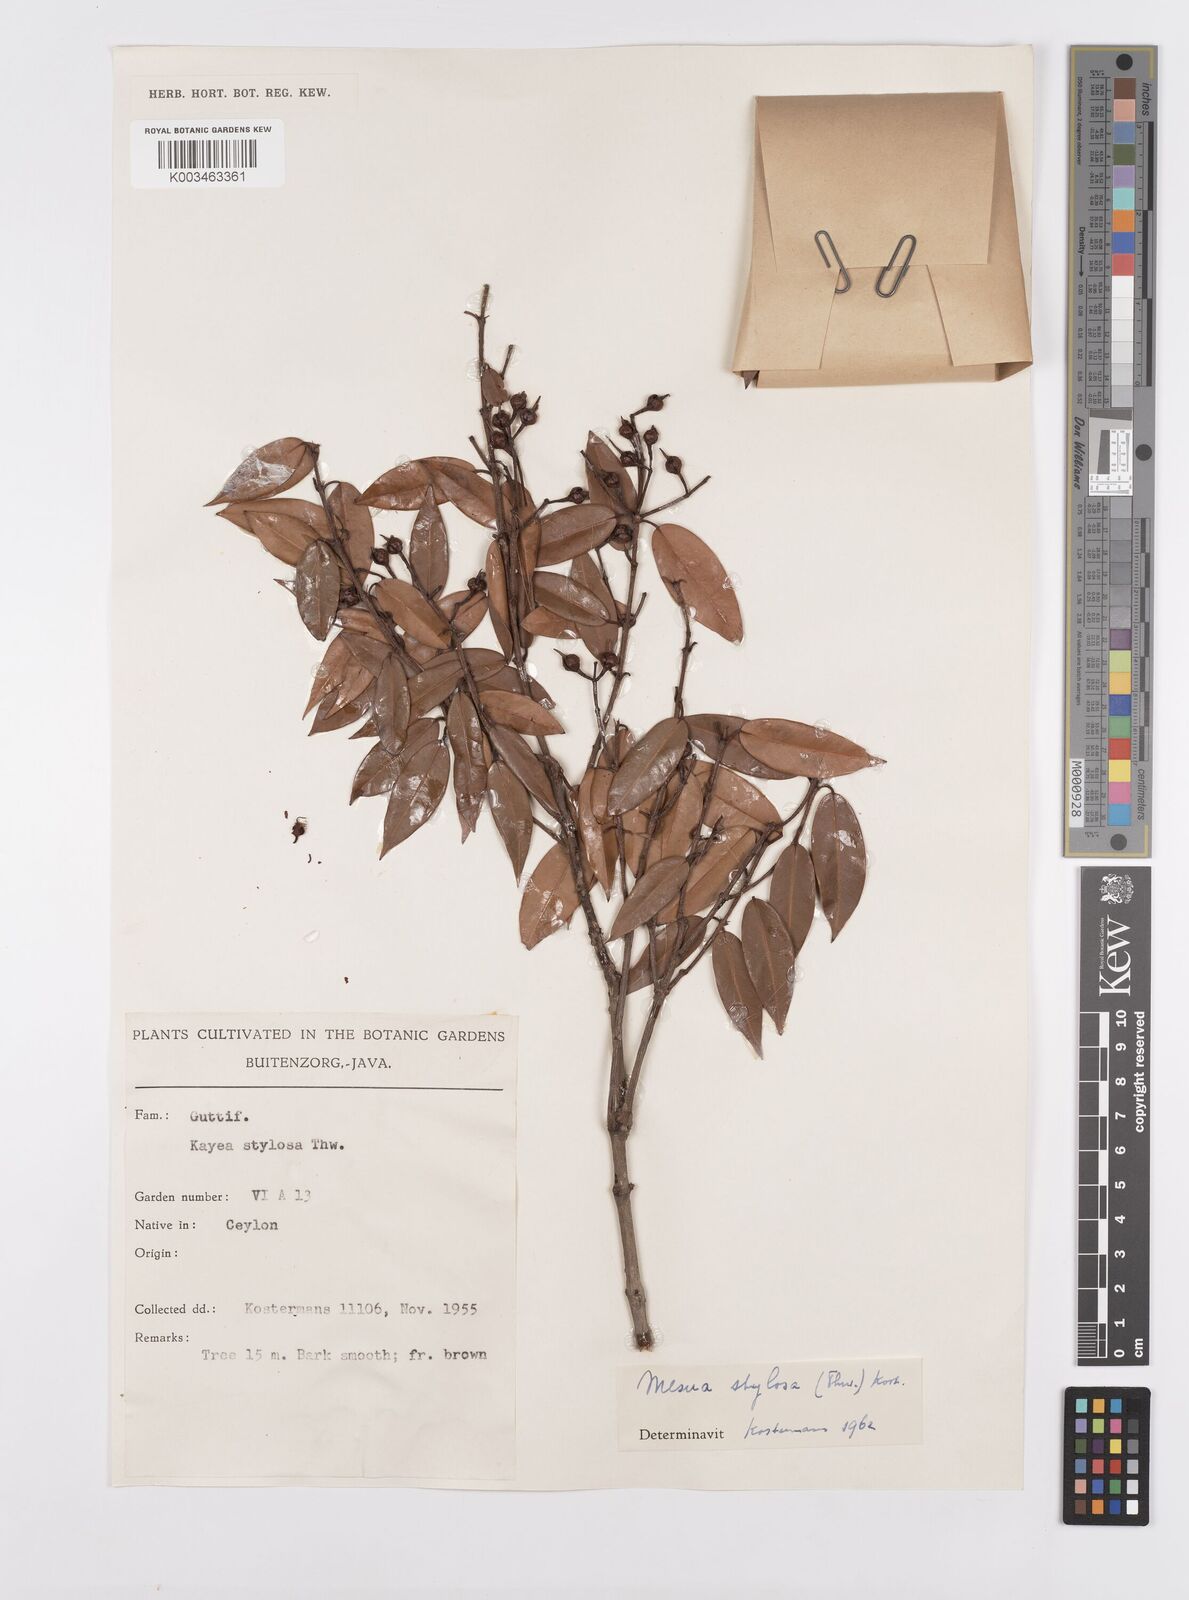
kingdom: Plantae
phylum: Tracheophyta
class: Magnoliopsida
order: Malpighiales
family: Calophyllaceae
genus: Kayea
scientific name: Kayea stylosa
